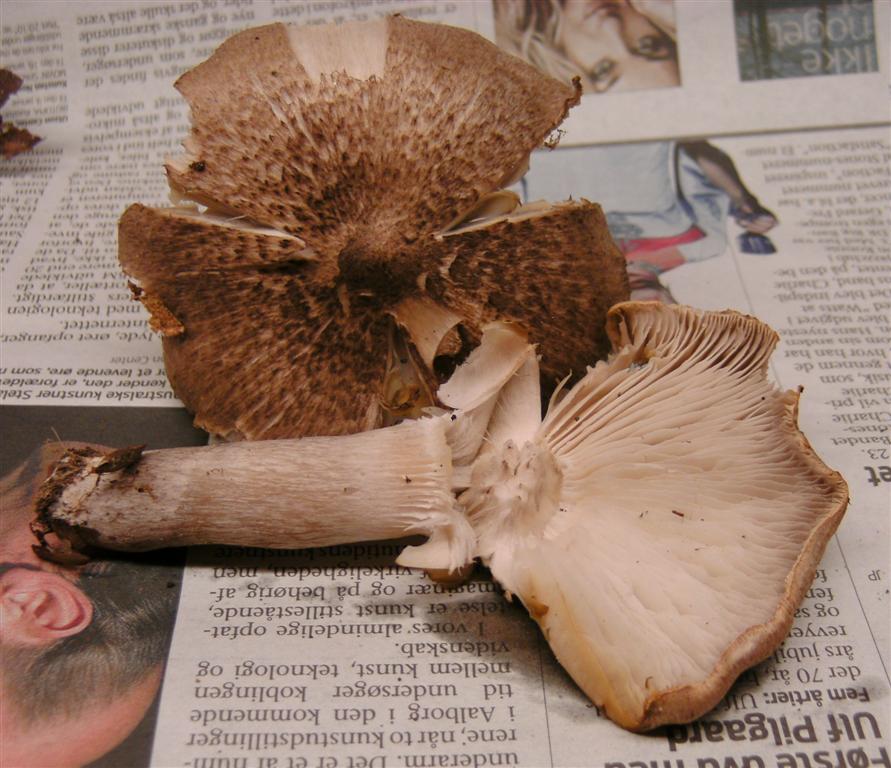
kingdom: Fungi
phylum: Basidiomycota
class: Agaricomycetes
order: Agaricales
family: Tricholomataceae
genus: Tricholoma
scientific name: Tricholoma scalpturatum
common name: gulplettet ridderhat
